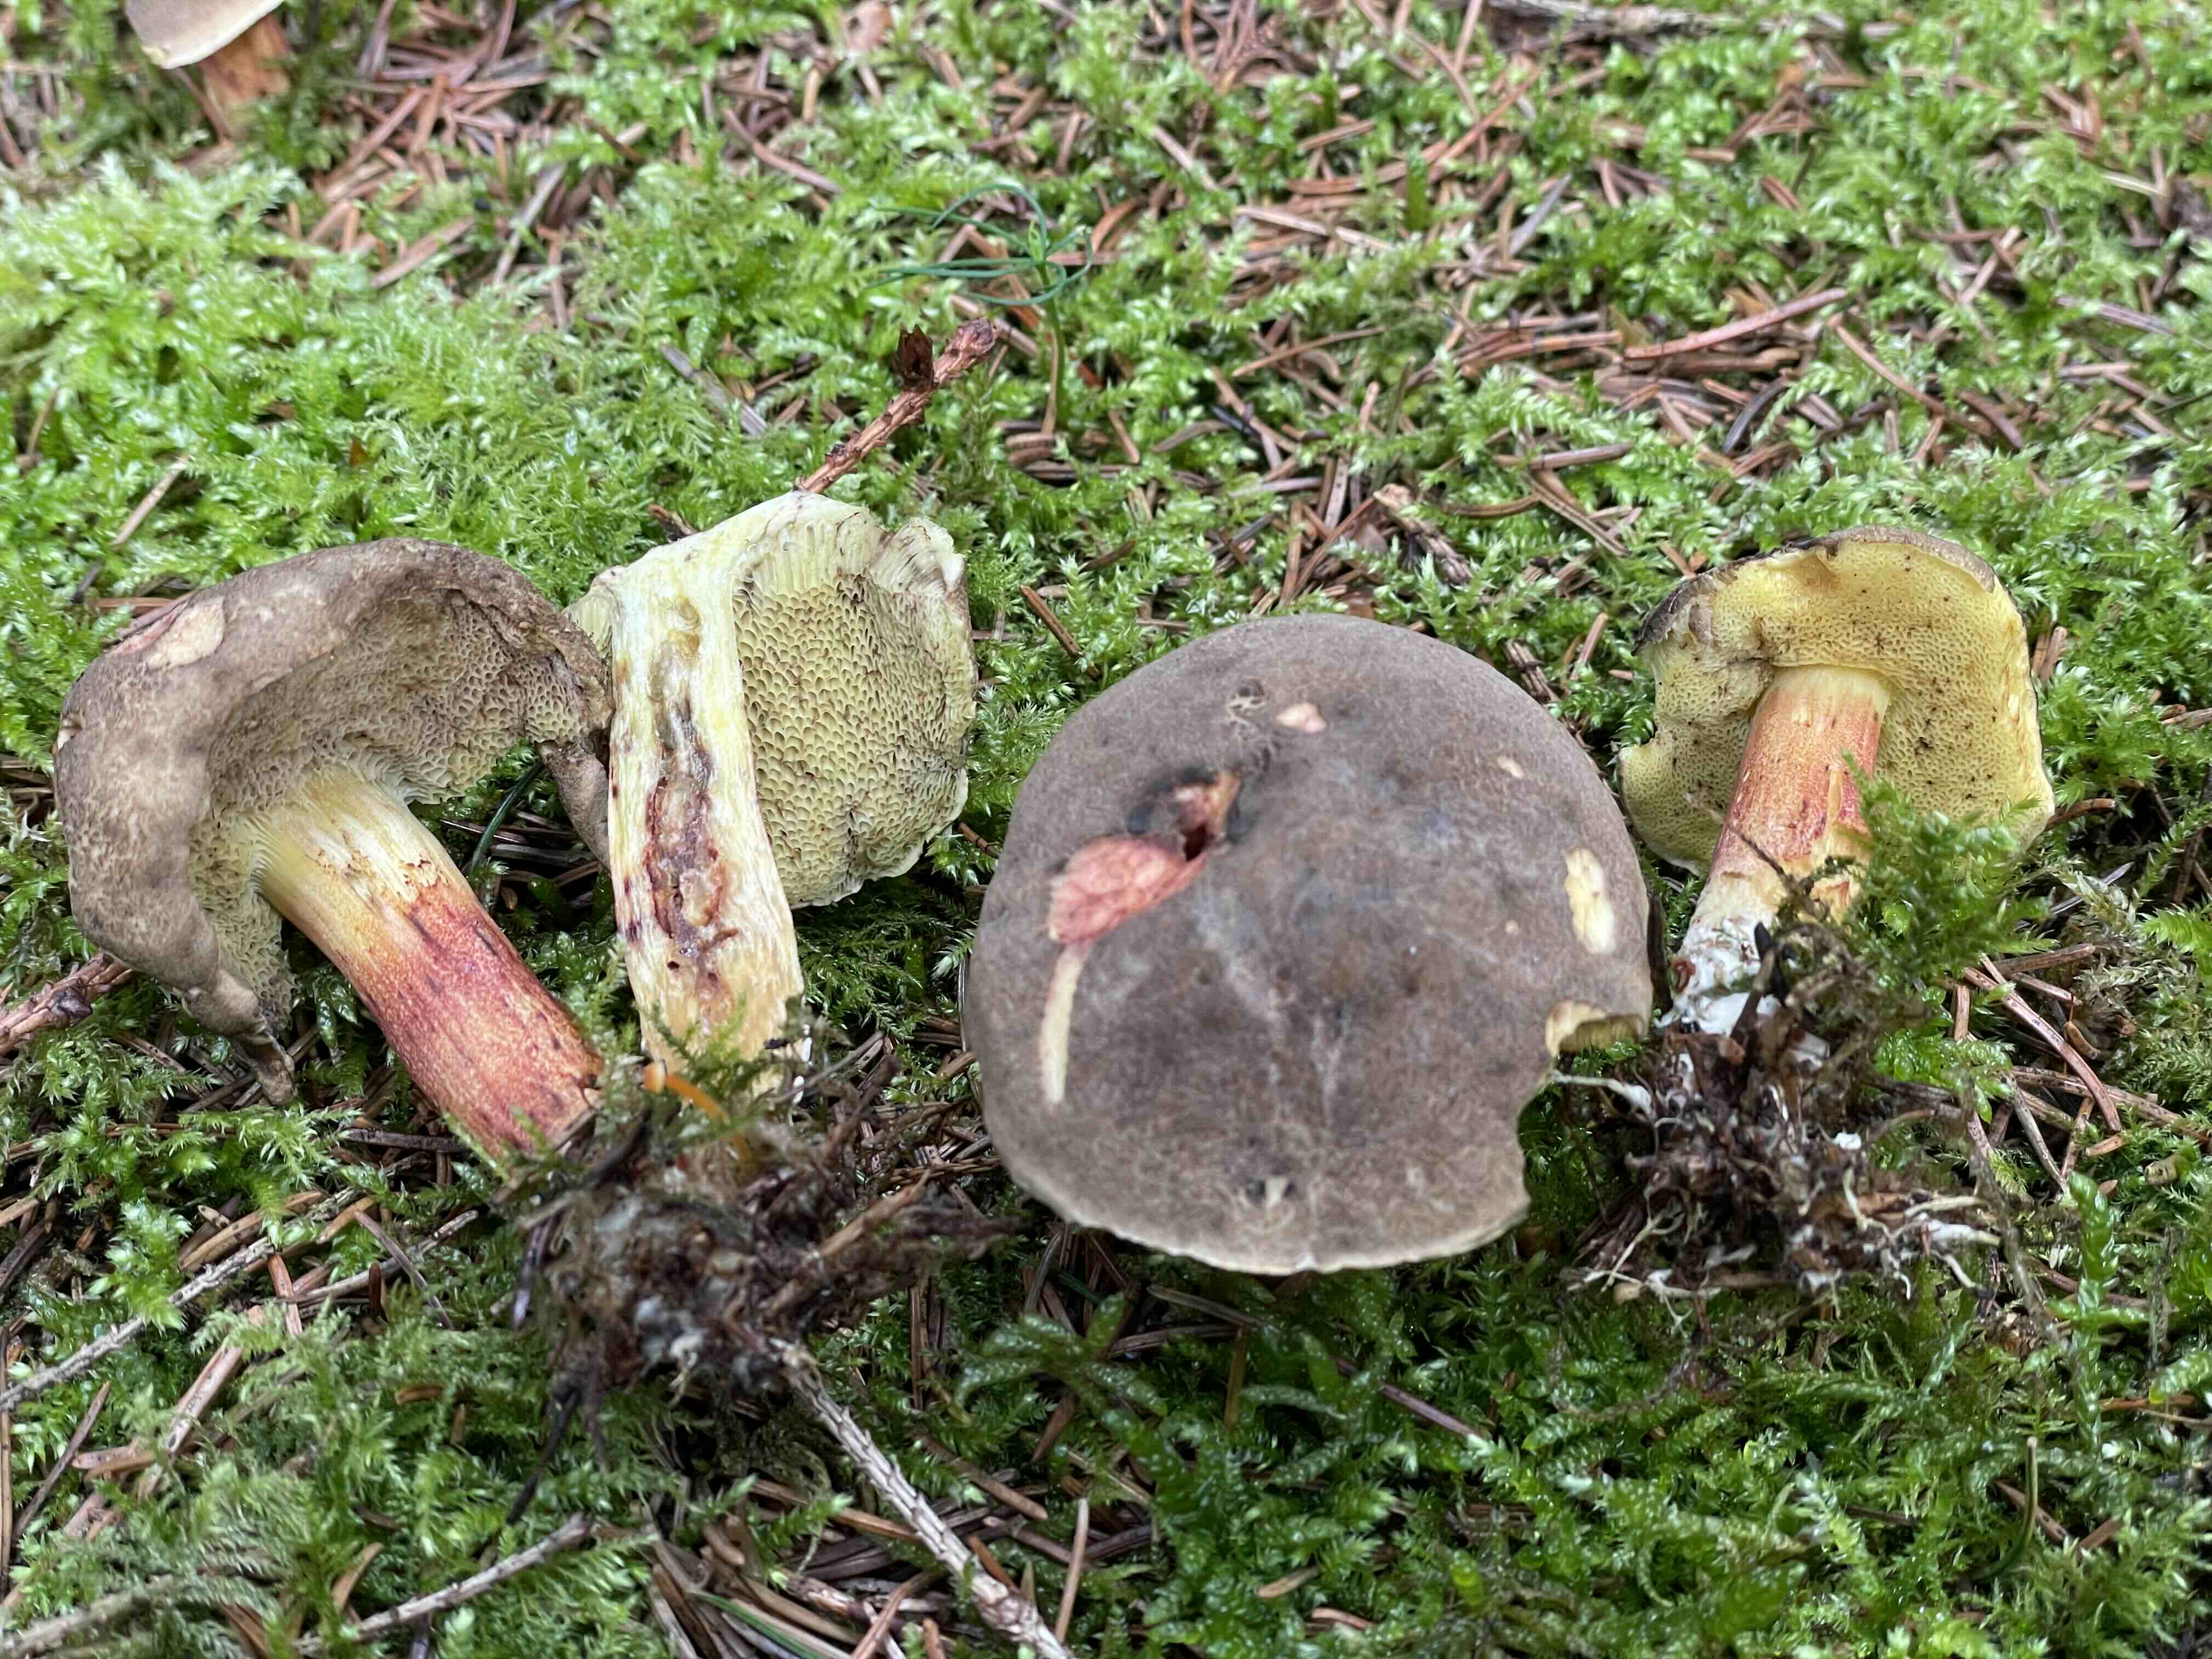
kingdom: Fungi
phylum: Basidiomycota
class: Agaricomycetes
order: Boletales
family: Boletaceae
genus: Xerocomellus
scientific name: Xerocomellus chrysenteron
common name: rødsprukken rørhat
